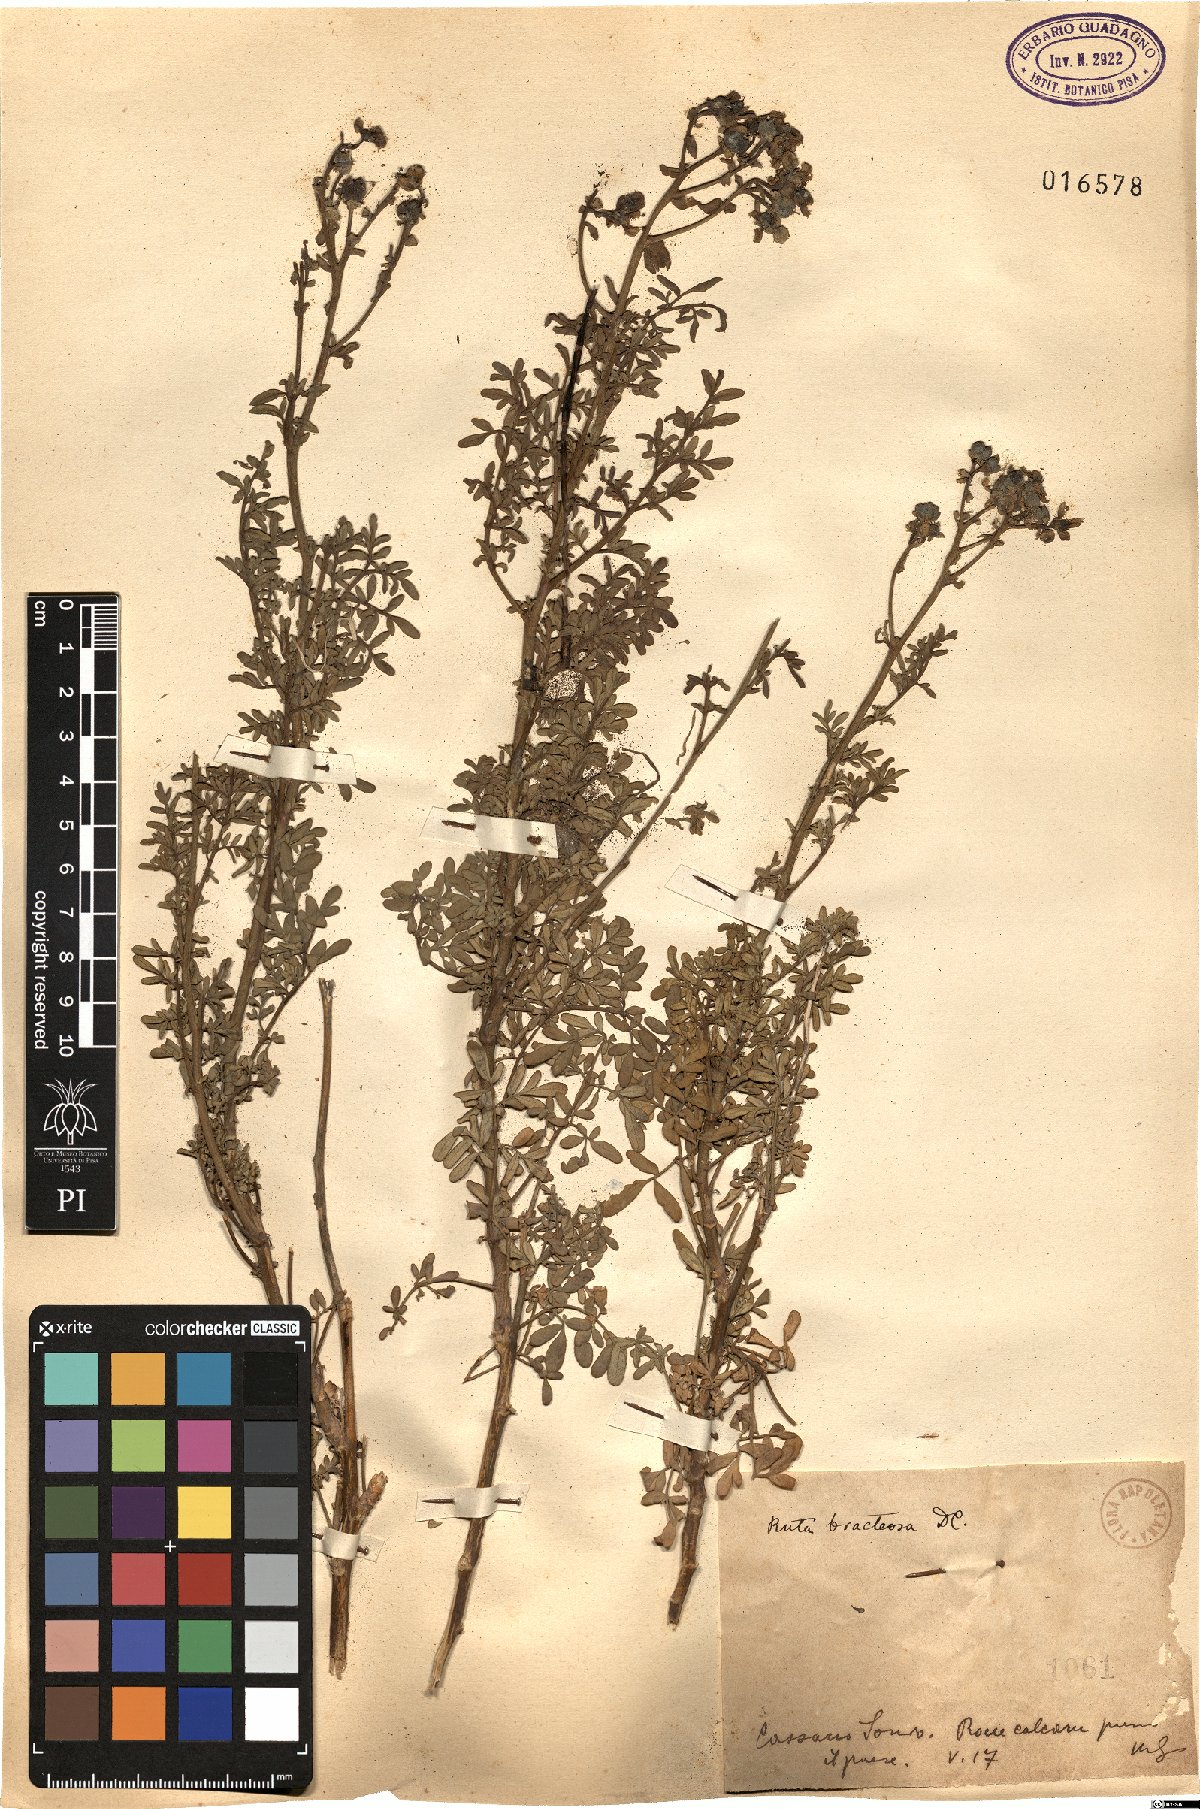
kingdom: Plantae
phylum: Tracheophyta
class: Magnoliopsida
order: Sapindales
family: Rutaceae
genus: Ruta
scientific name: Ruta chalepensis
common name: Fringed rue
